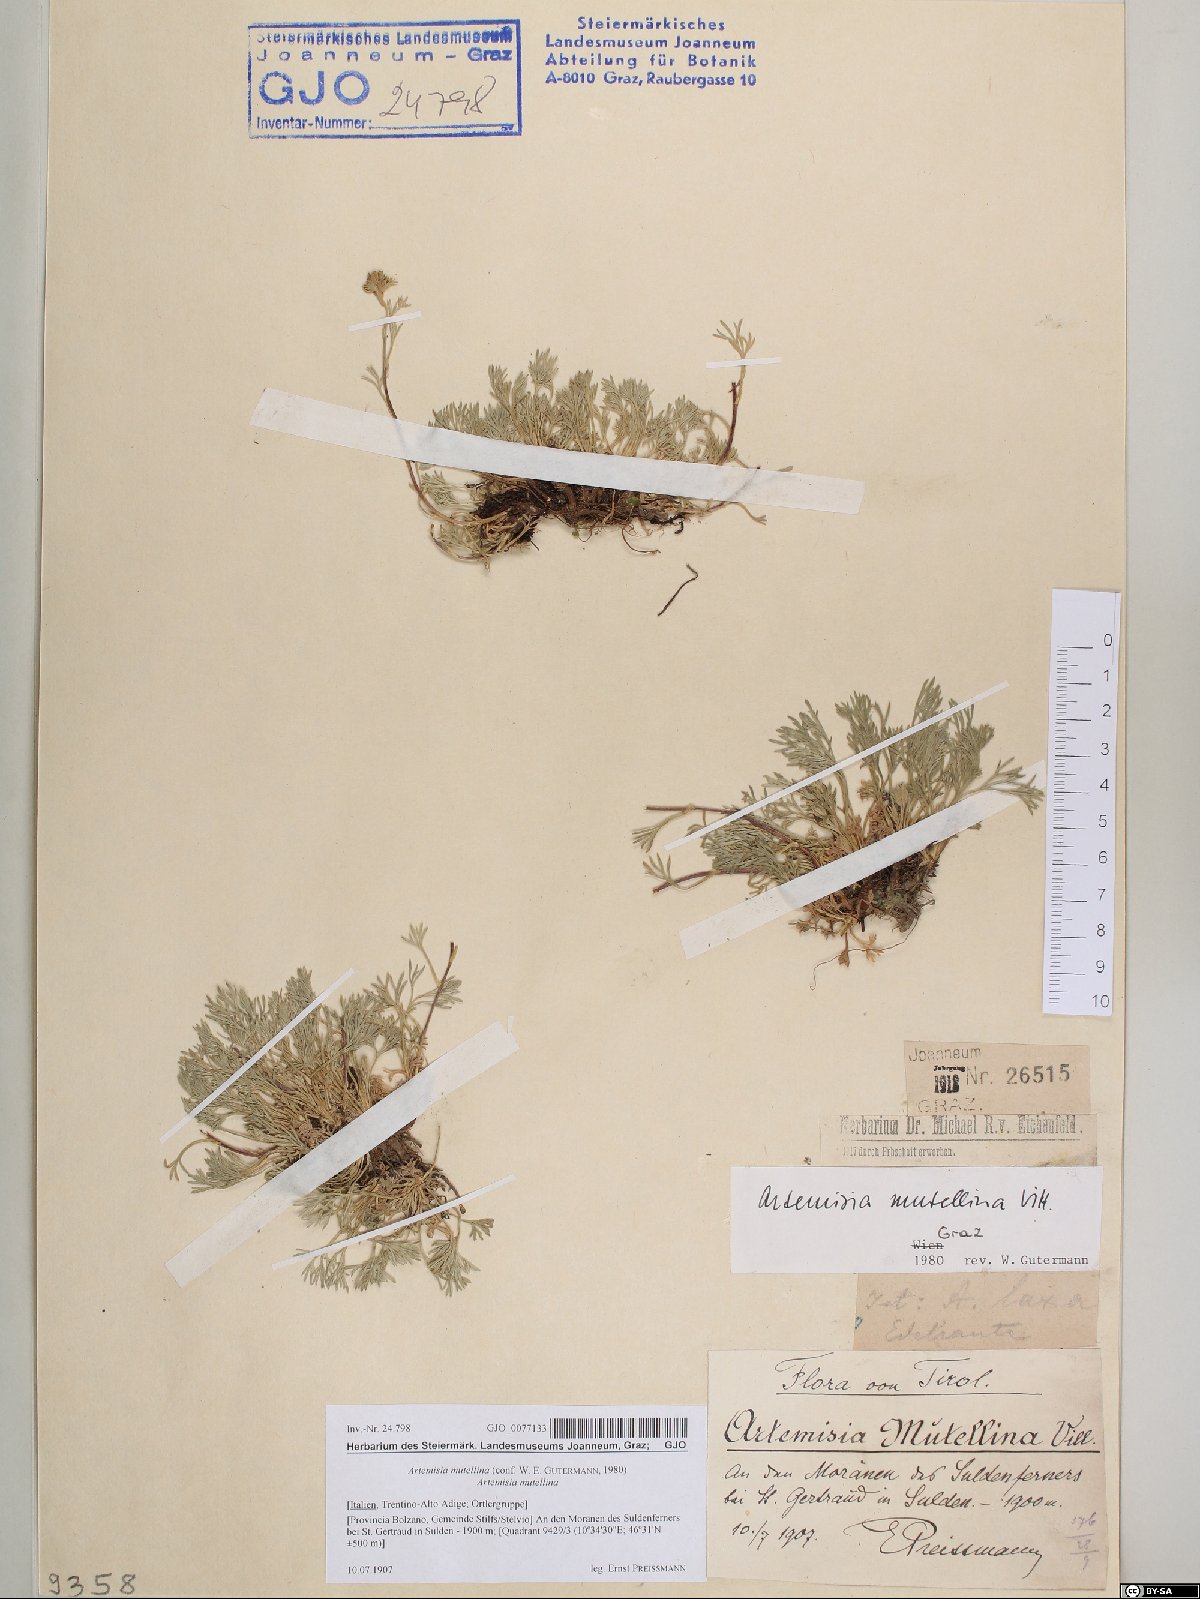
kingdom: Plantae
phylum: Tracheophyta
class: Magnoliopsida
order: Asterales
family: Asteraceae
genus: Artemisia
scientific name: Artemisia mutellina
